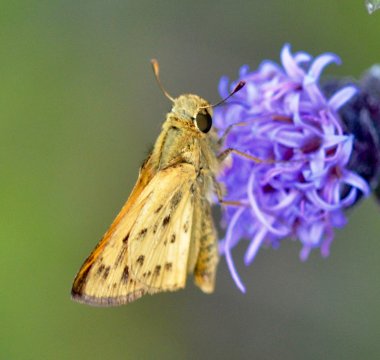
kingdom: Animalia
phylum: Arthropoda
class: Insecta
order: Lepidoptera
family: Hesperiidae
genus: Hylephila
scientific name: Hylephila phyleus
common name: Fiery Skipper
